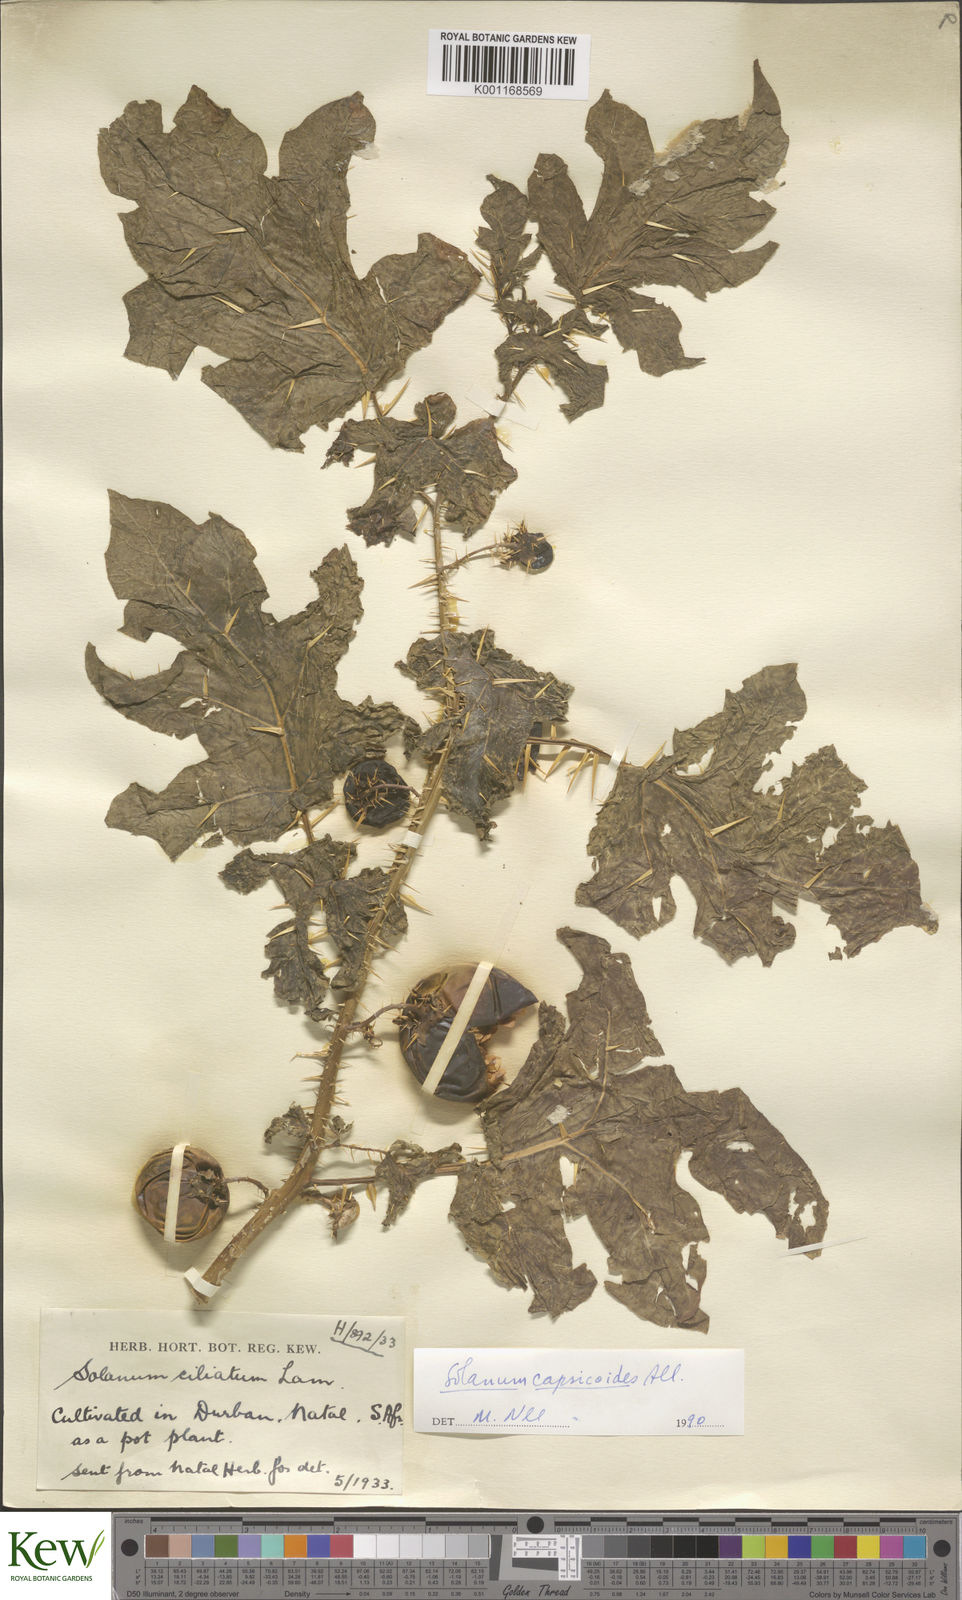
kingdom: Plantae
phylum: Tracheophyta
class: Magnoliopsida
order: Solanales
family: Solanaceae
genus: Solanum
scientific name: Solanum capsicoides
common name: Cockroach berry
